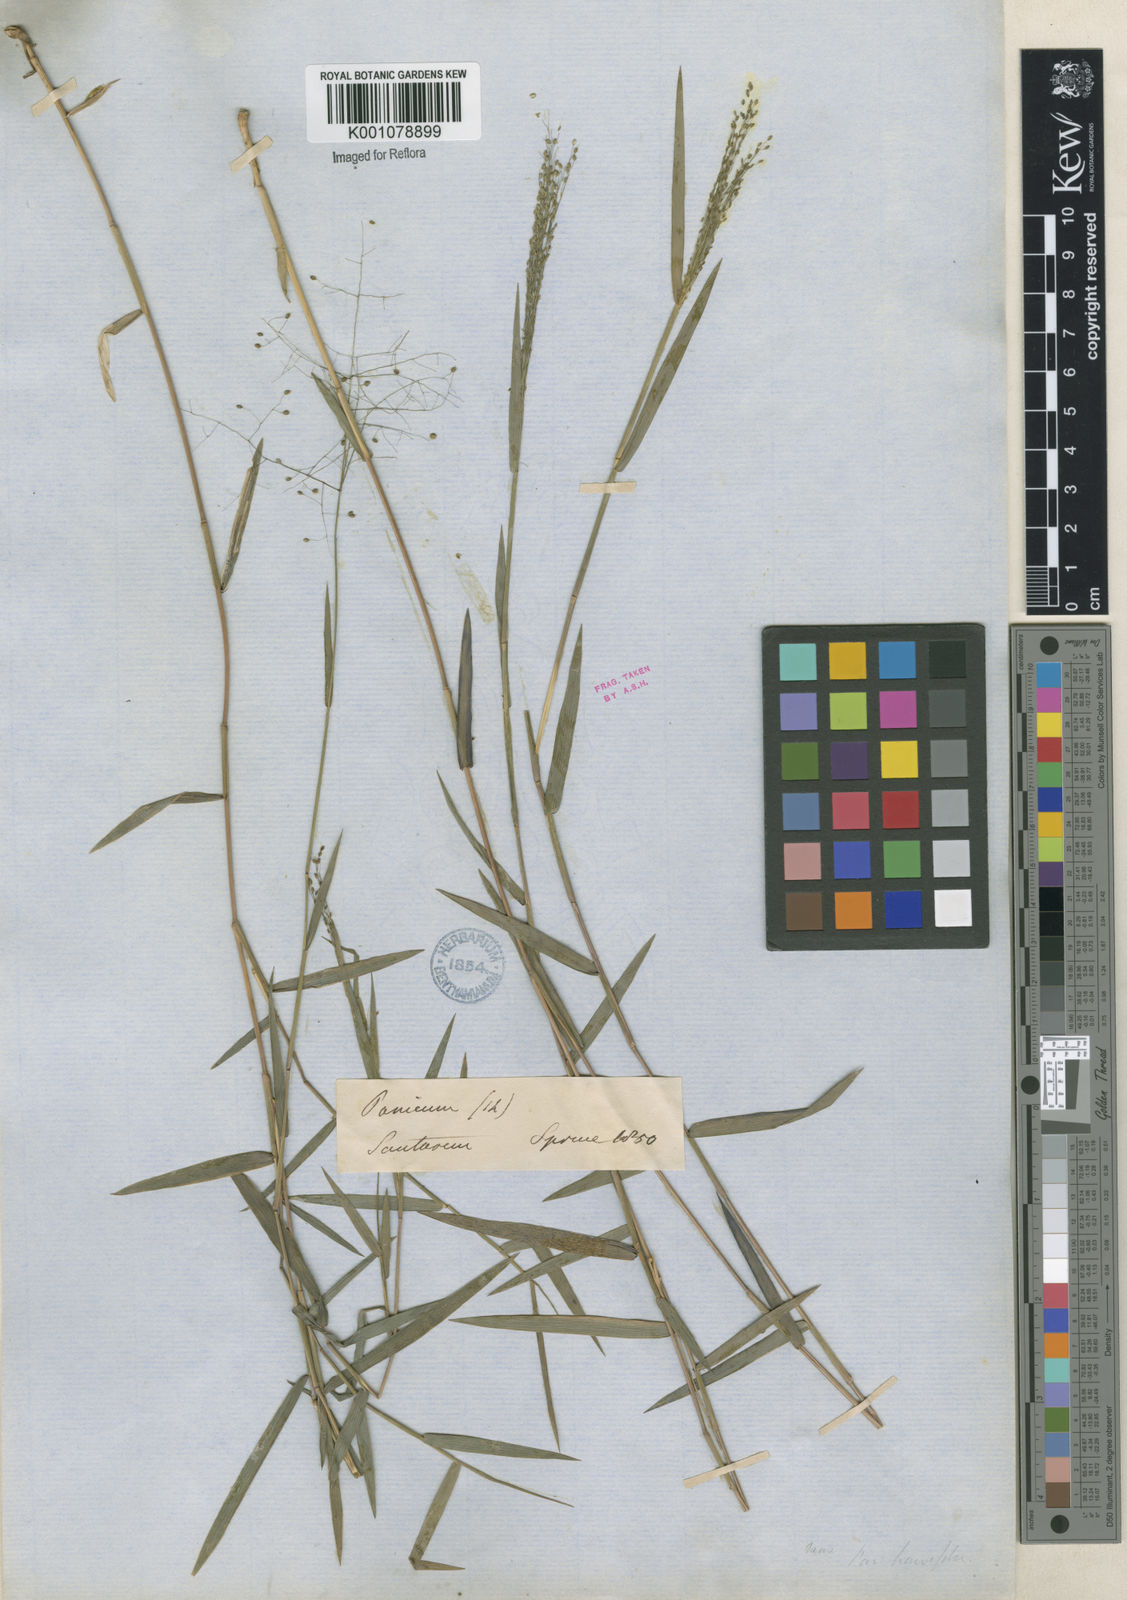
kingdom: Plantae
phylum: Tracheophyta
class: Liliopsida
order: Poales
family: Poaceae
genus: Trichanthecium
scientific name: Trichanthecium cyanescens
